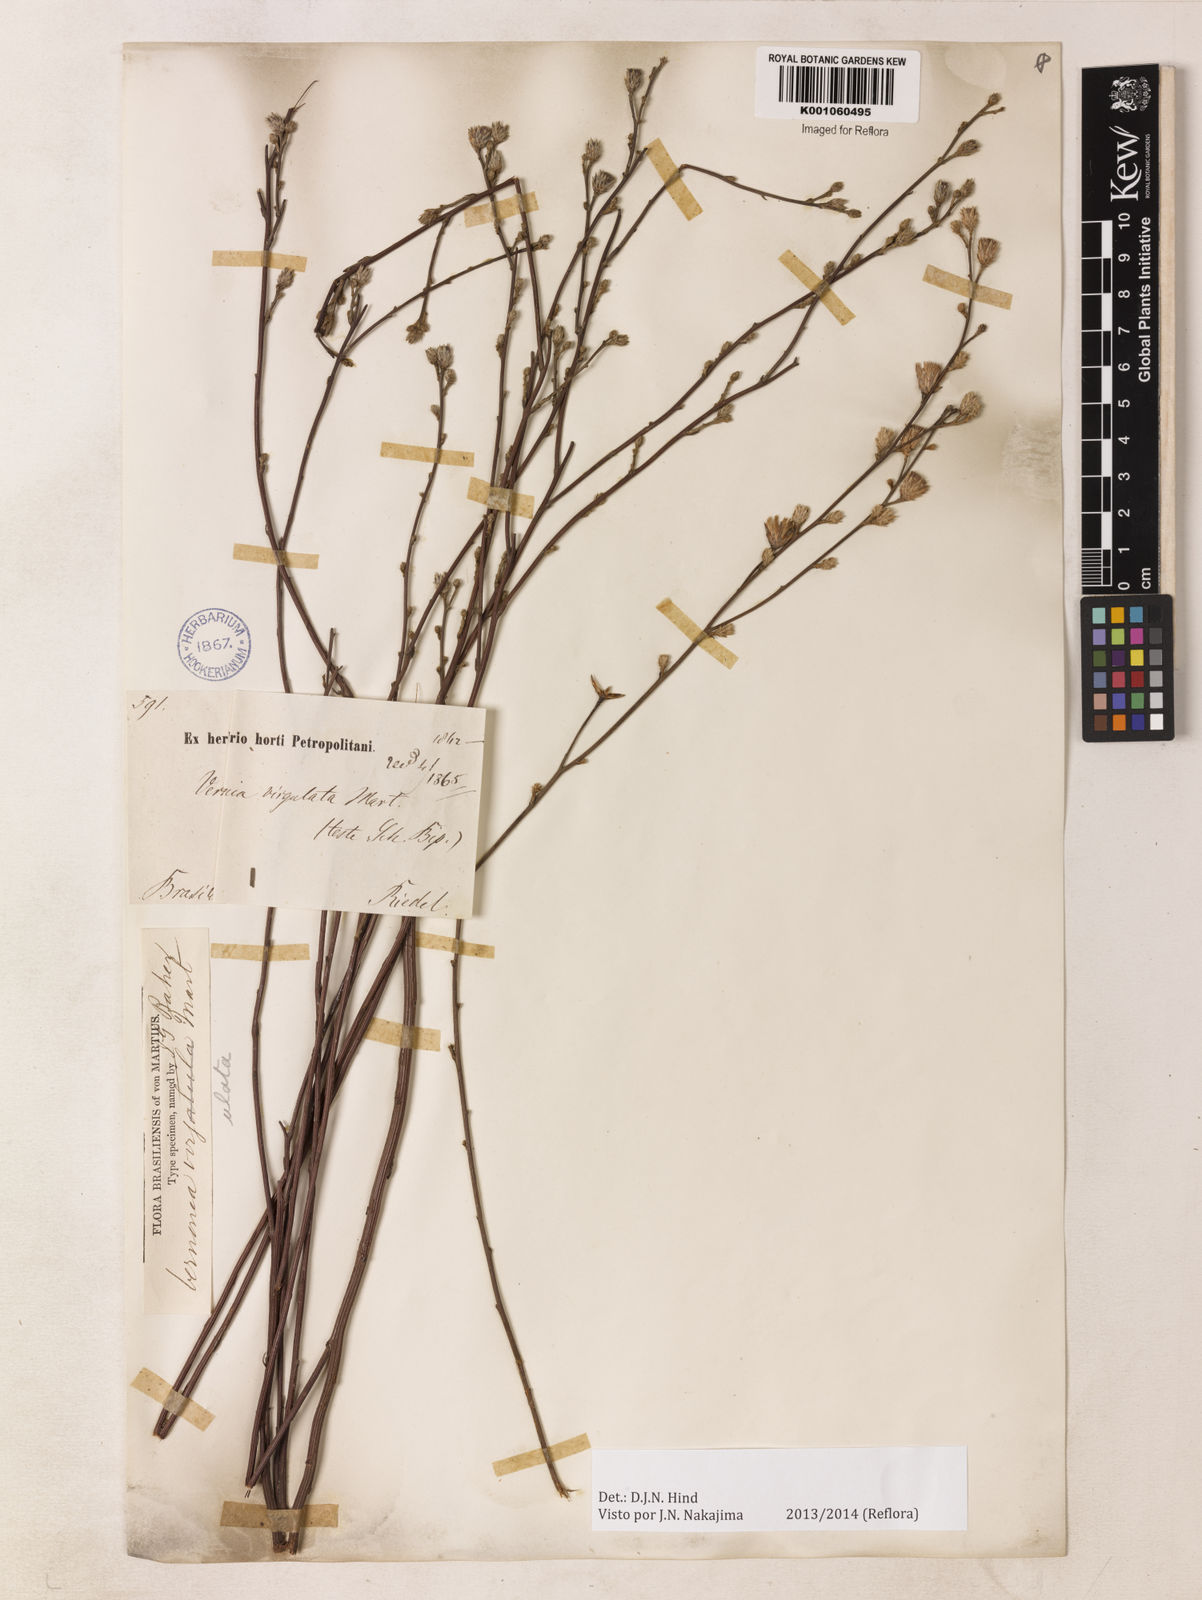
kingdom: Plantae
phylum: Tracheophyta
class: Magnoliopsida
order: Asterales
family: Asteraceae
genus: Lessingianthus
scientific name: Lessingianthus virgulatus
